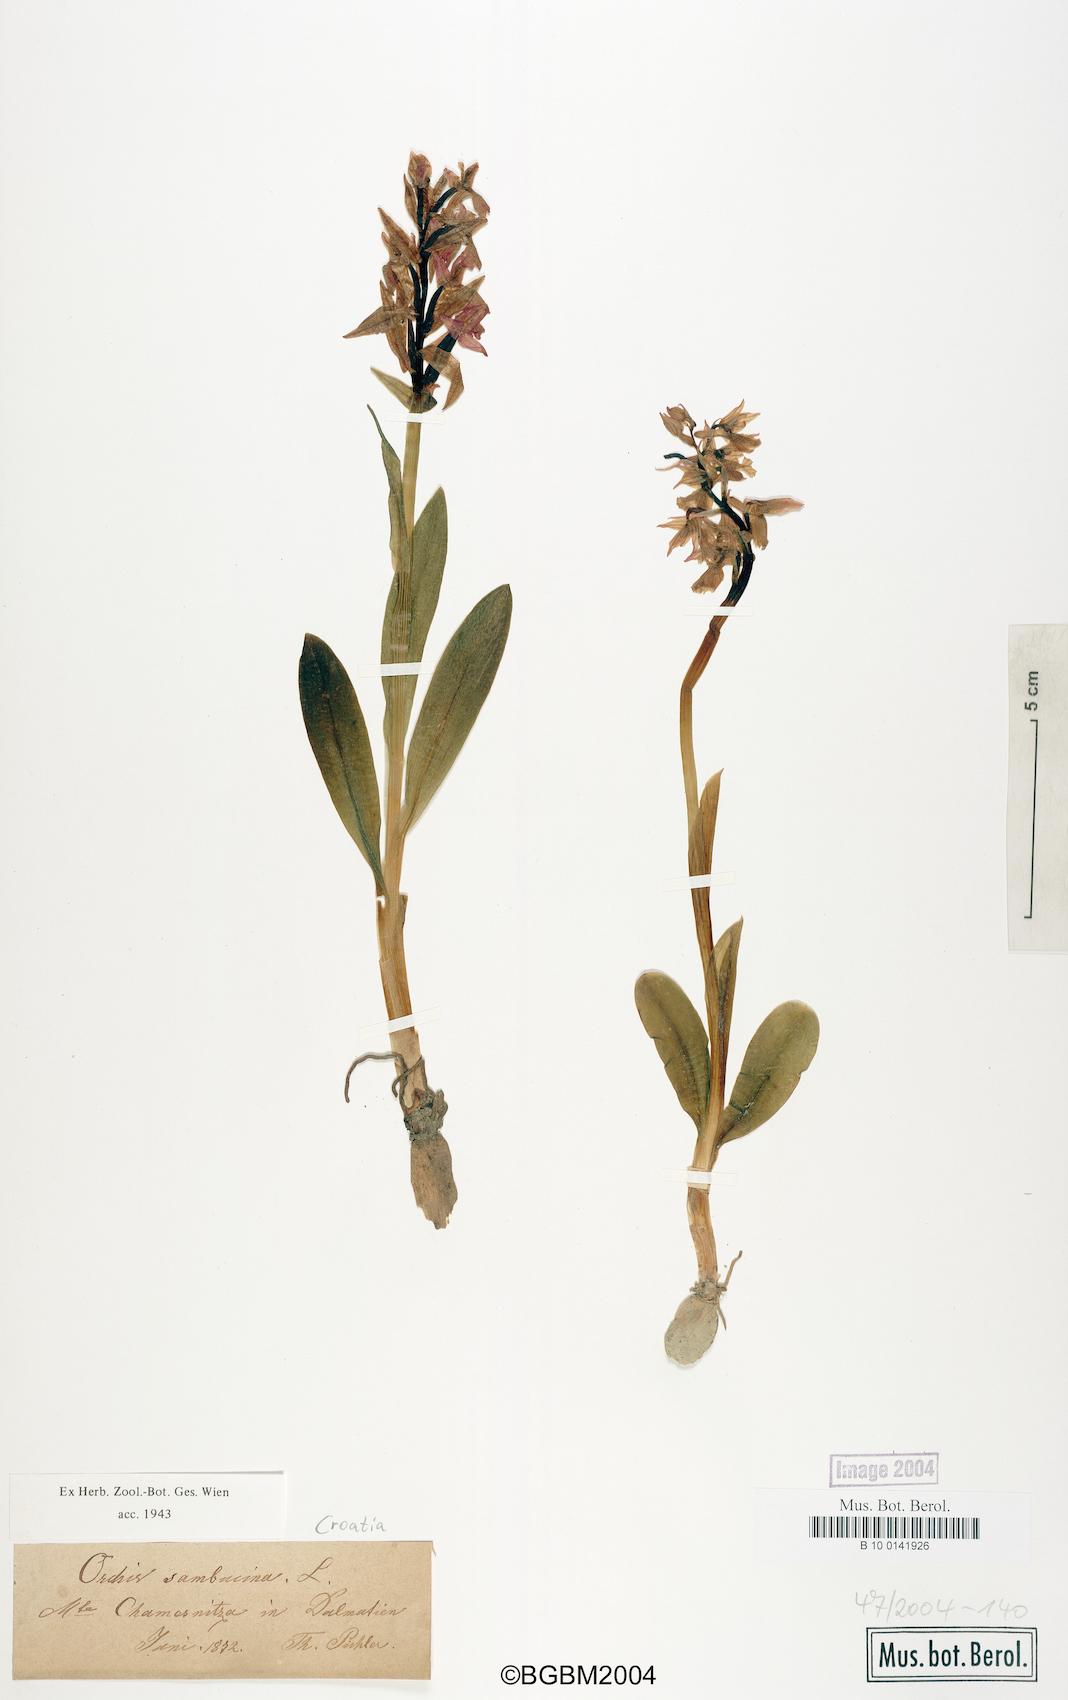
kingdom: Plantae
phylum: Tracheophyta
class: Liliopsida
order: Asparagales
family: Orchidaceae
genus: Dactylorhiza
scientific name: Dactylorhiza sambucina
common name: Elder-flowered orchid
